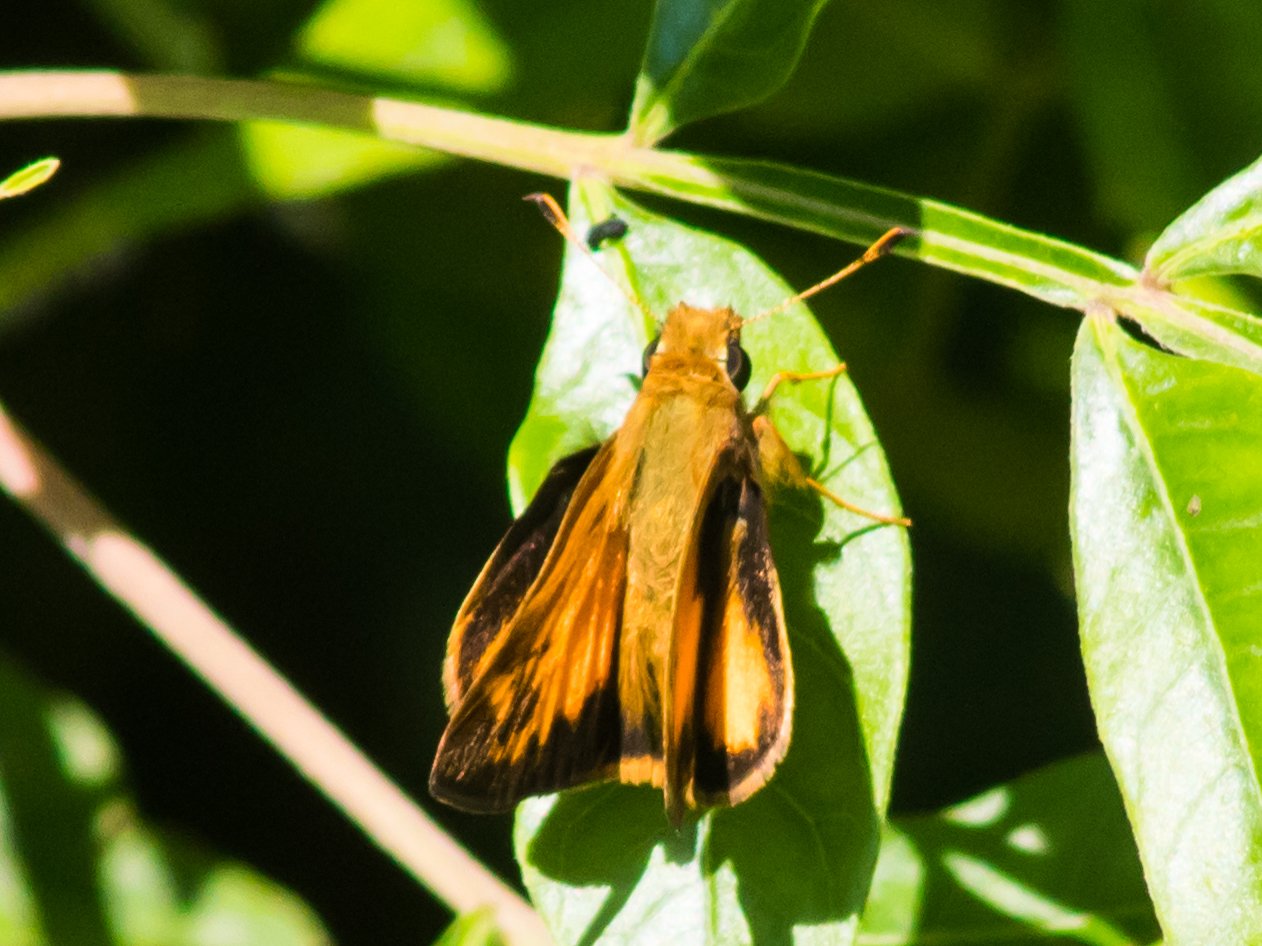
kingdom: Animalia
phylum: Arthropoda
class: Insecta
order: Lepidoptera
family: Hesperiidae
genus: Lon
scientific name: Lon zabulon
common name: Zabulon Skipper
